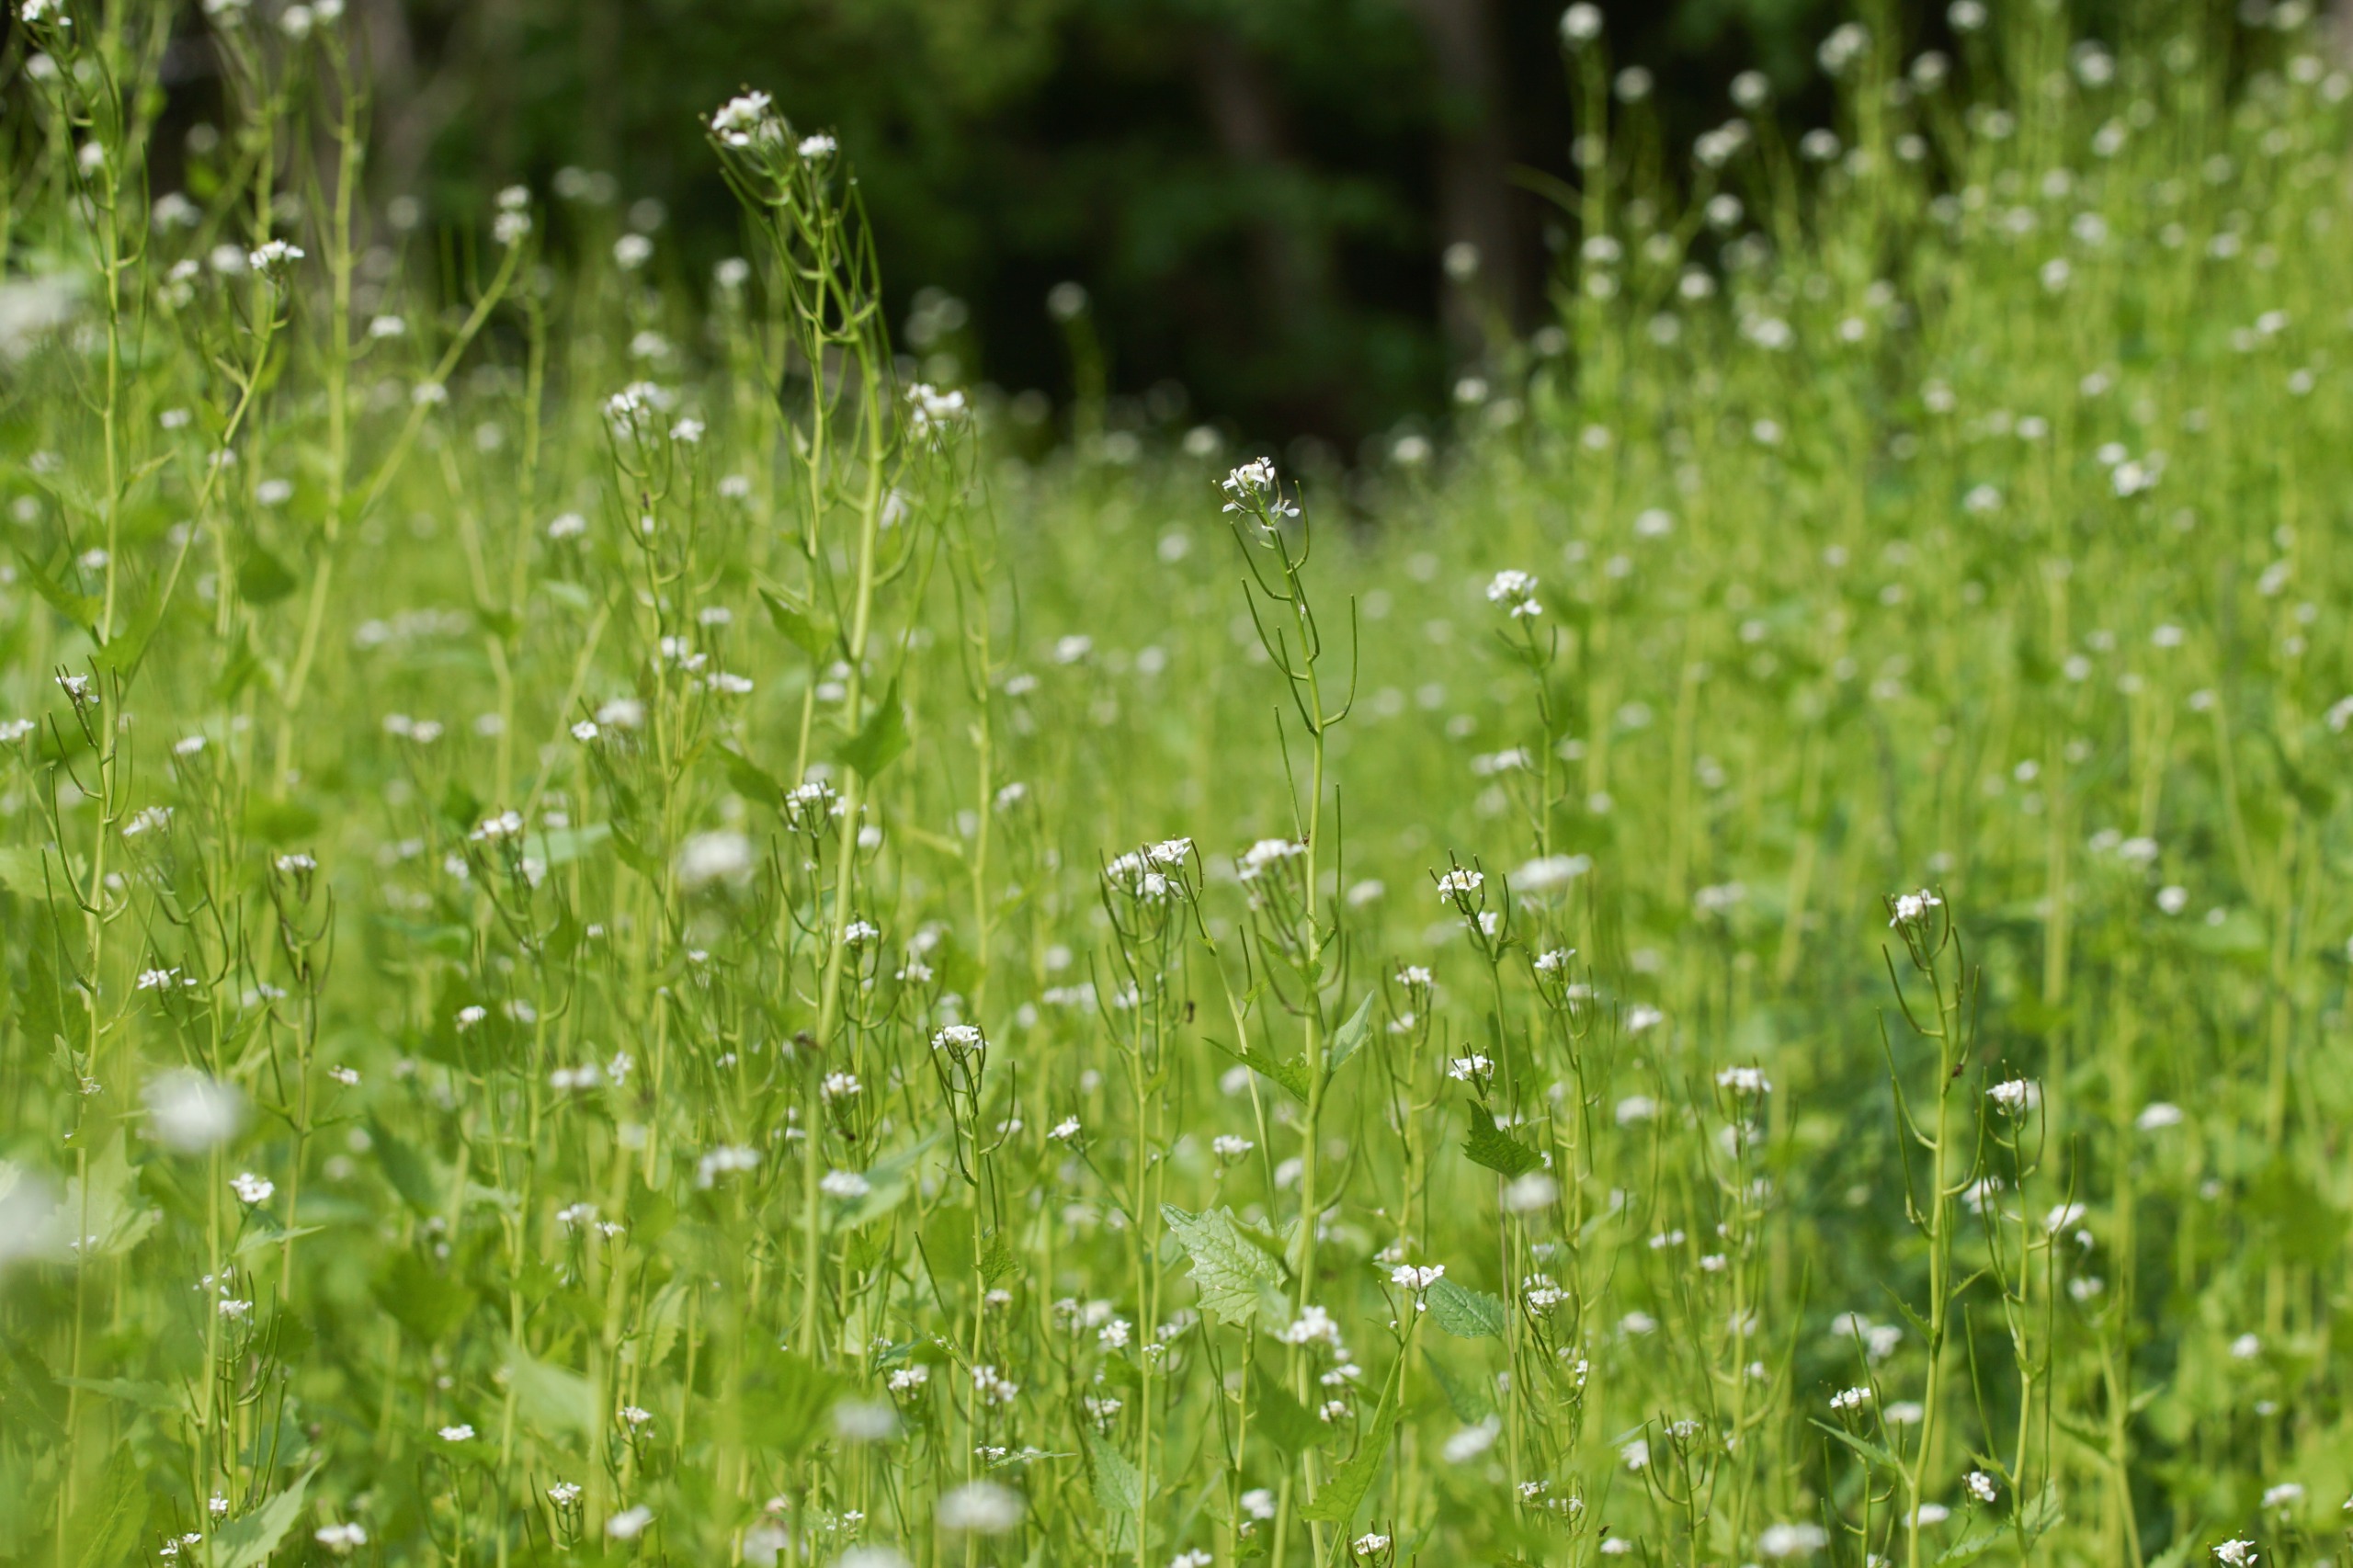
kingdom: Plantae
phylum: Tracheophyta
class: Magnoliopsida
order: Brassicales
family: Brassicaceae
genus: Alliaria
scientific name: Alliaria petiolata
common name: Løgkarse
